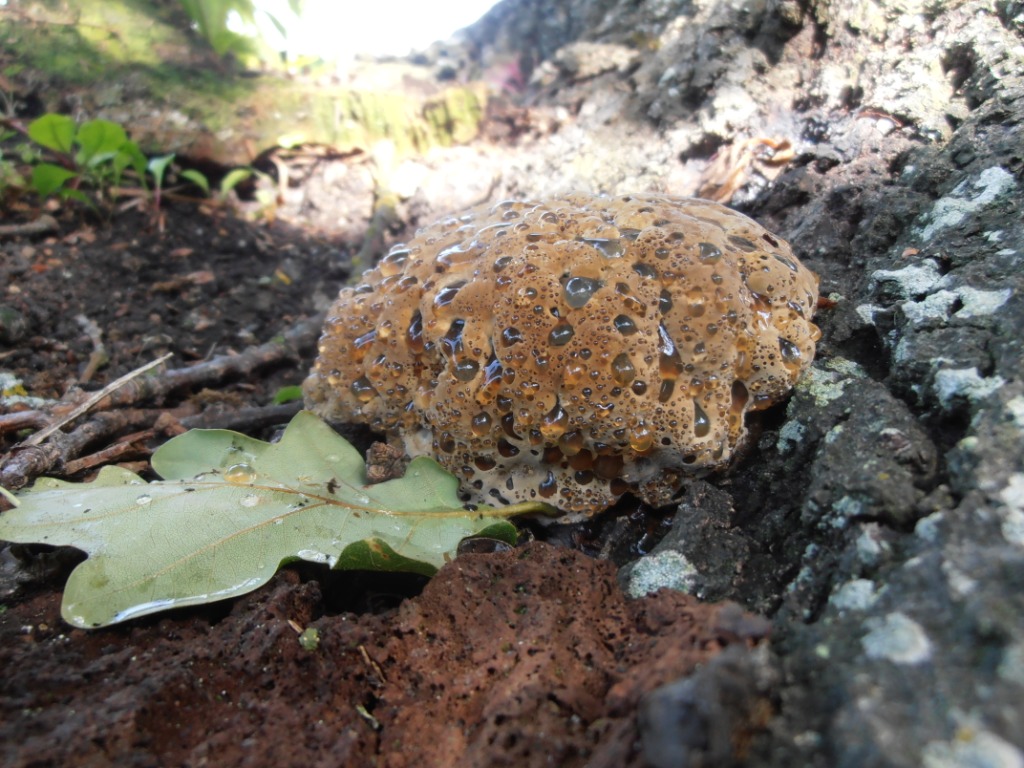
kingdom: Fungi
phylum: Basidiomycota
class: Agaricomycetes
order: Hymenochaetales
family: Hymenochaetaceae
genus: Pseudoinonotus
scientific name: Pseudoinonotus dryadeus
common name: ege-spejlporesvamp
